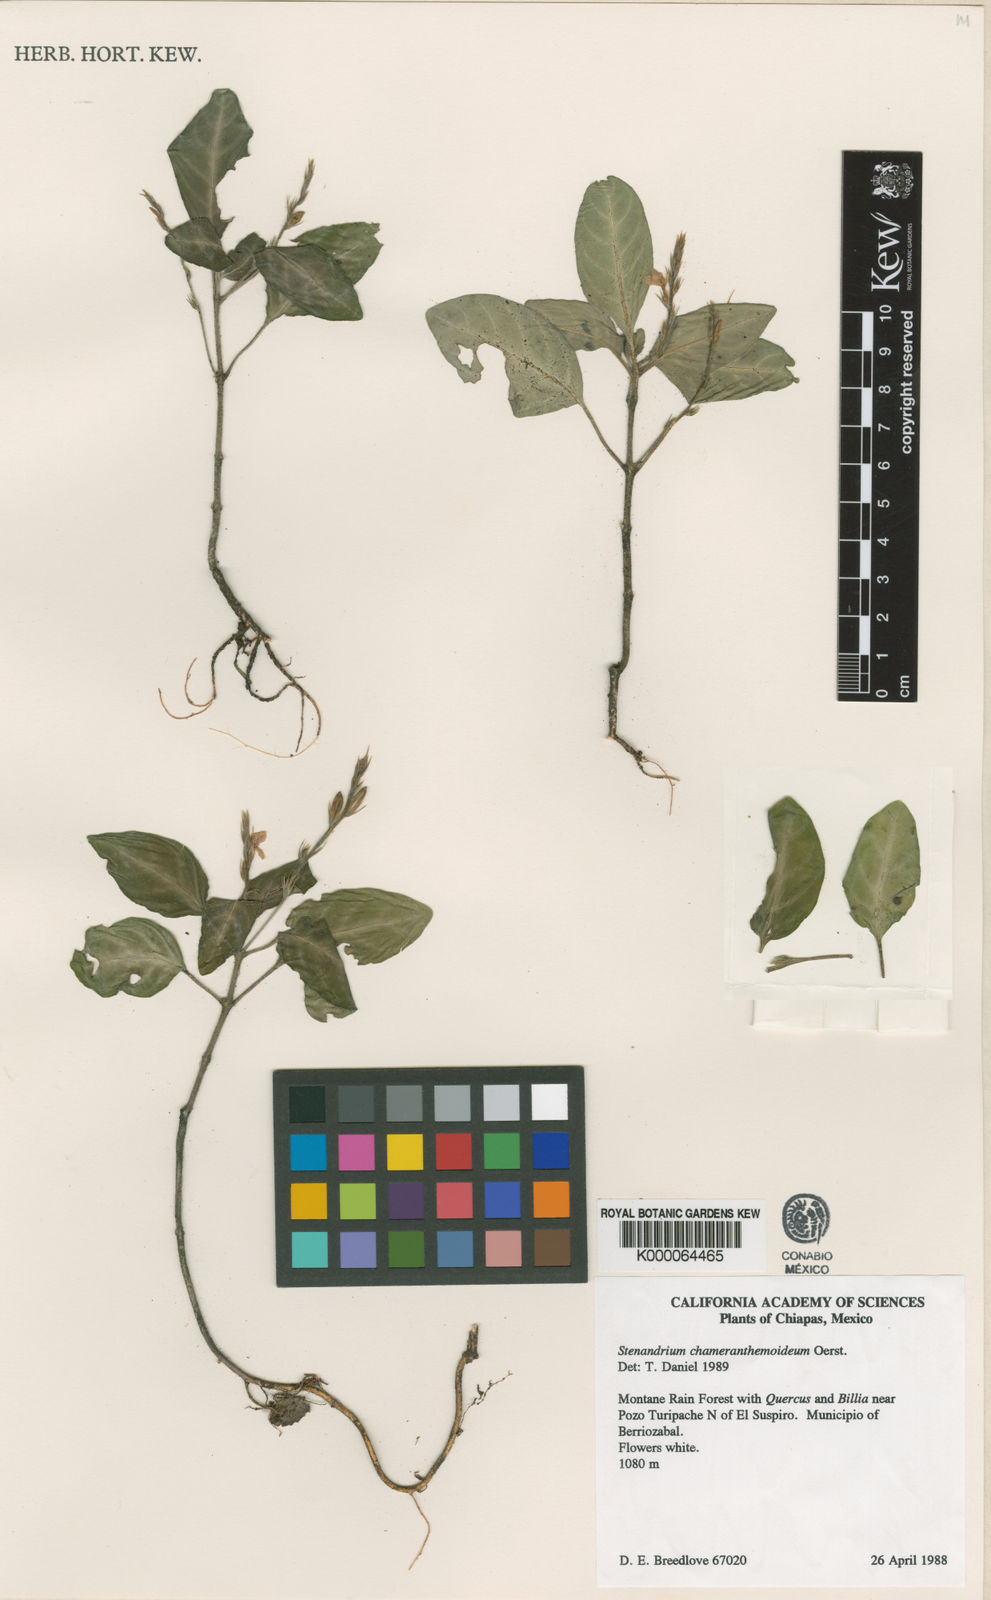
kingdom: Plantae
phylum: Tracheophyta
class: Magnoliopsida
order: Lamiales
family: Acanthaceae
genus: Stenandrium
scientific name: Stenandrium chameranthemoideum
